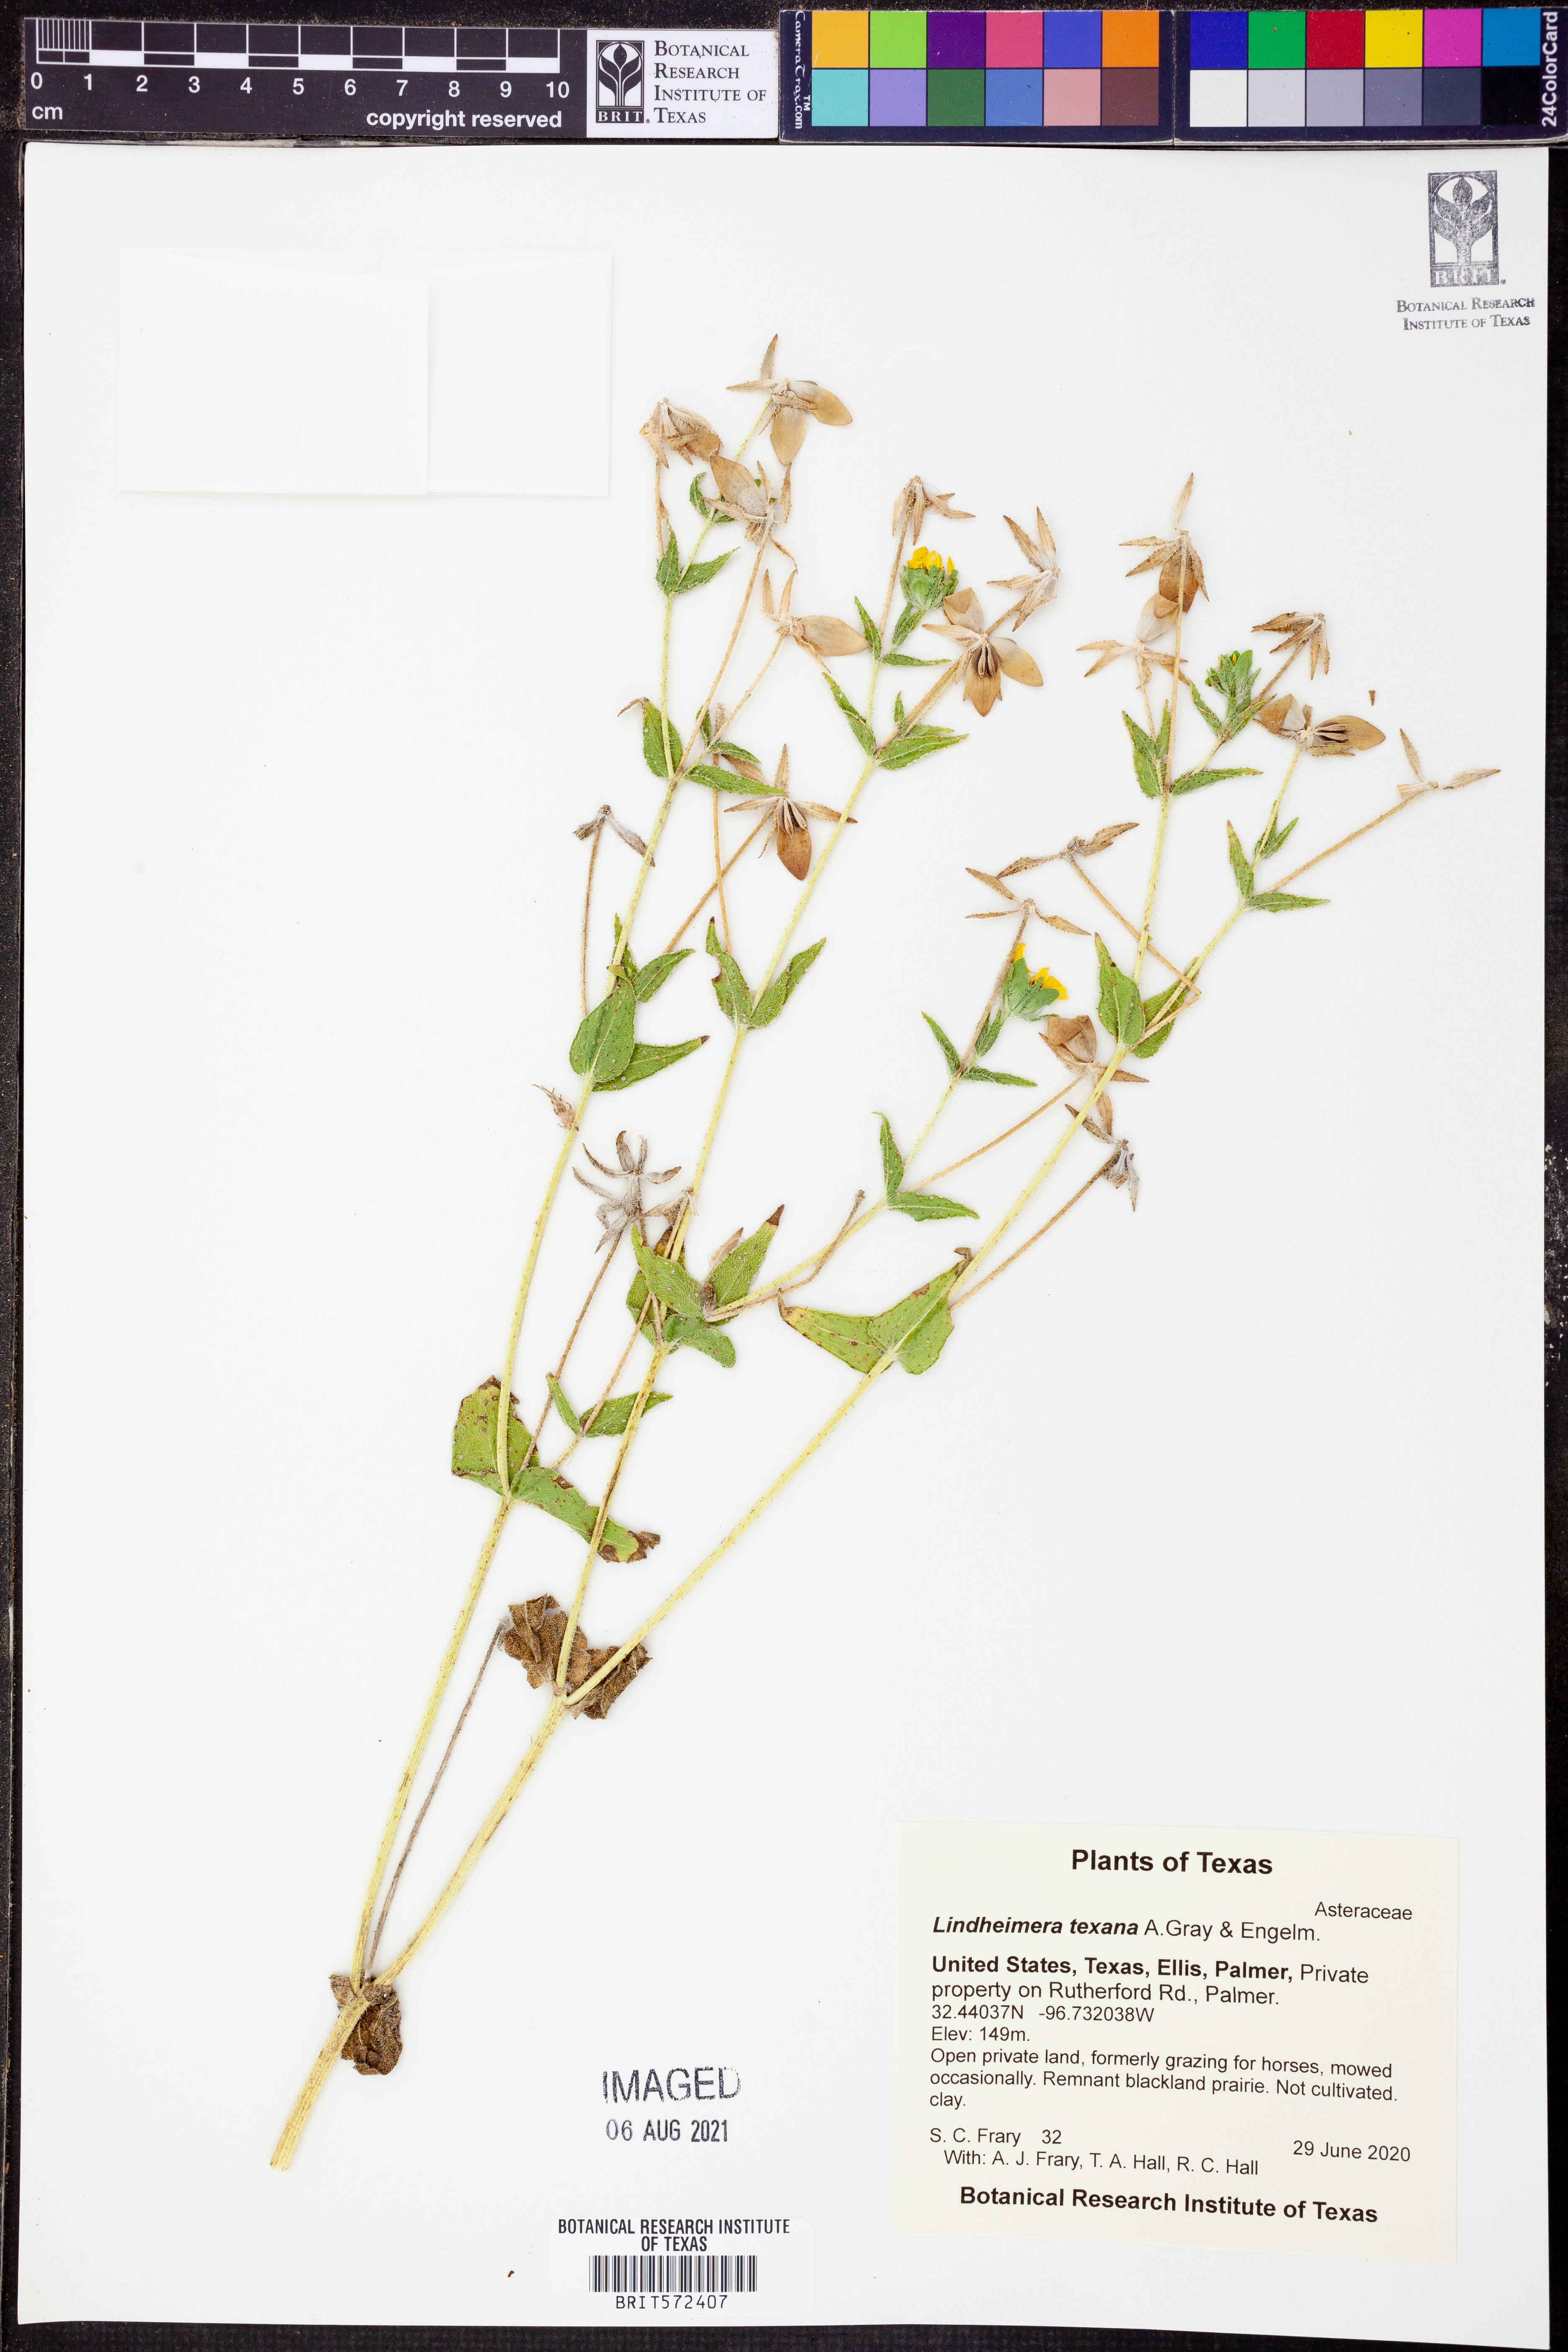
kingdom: Plantae
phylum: Tracheophyta
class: Magnoliopsida
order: Asterales
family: Asteraceae
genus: Lindheimera
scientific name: Lindheimera texana
